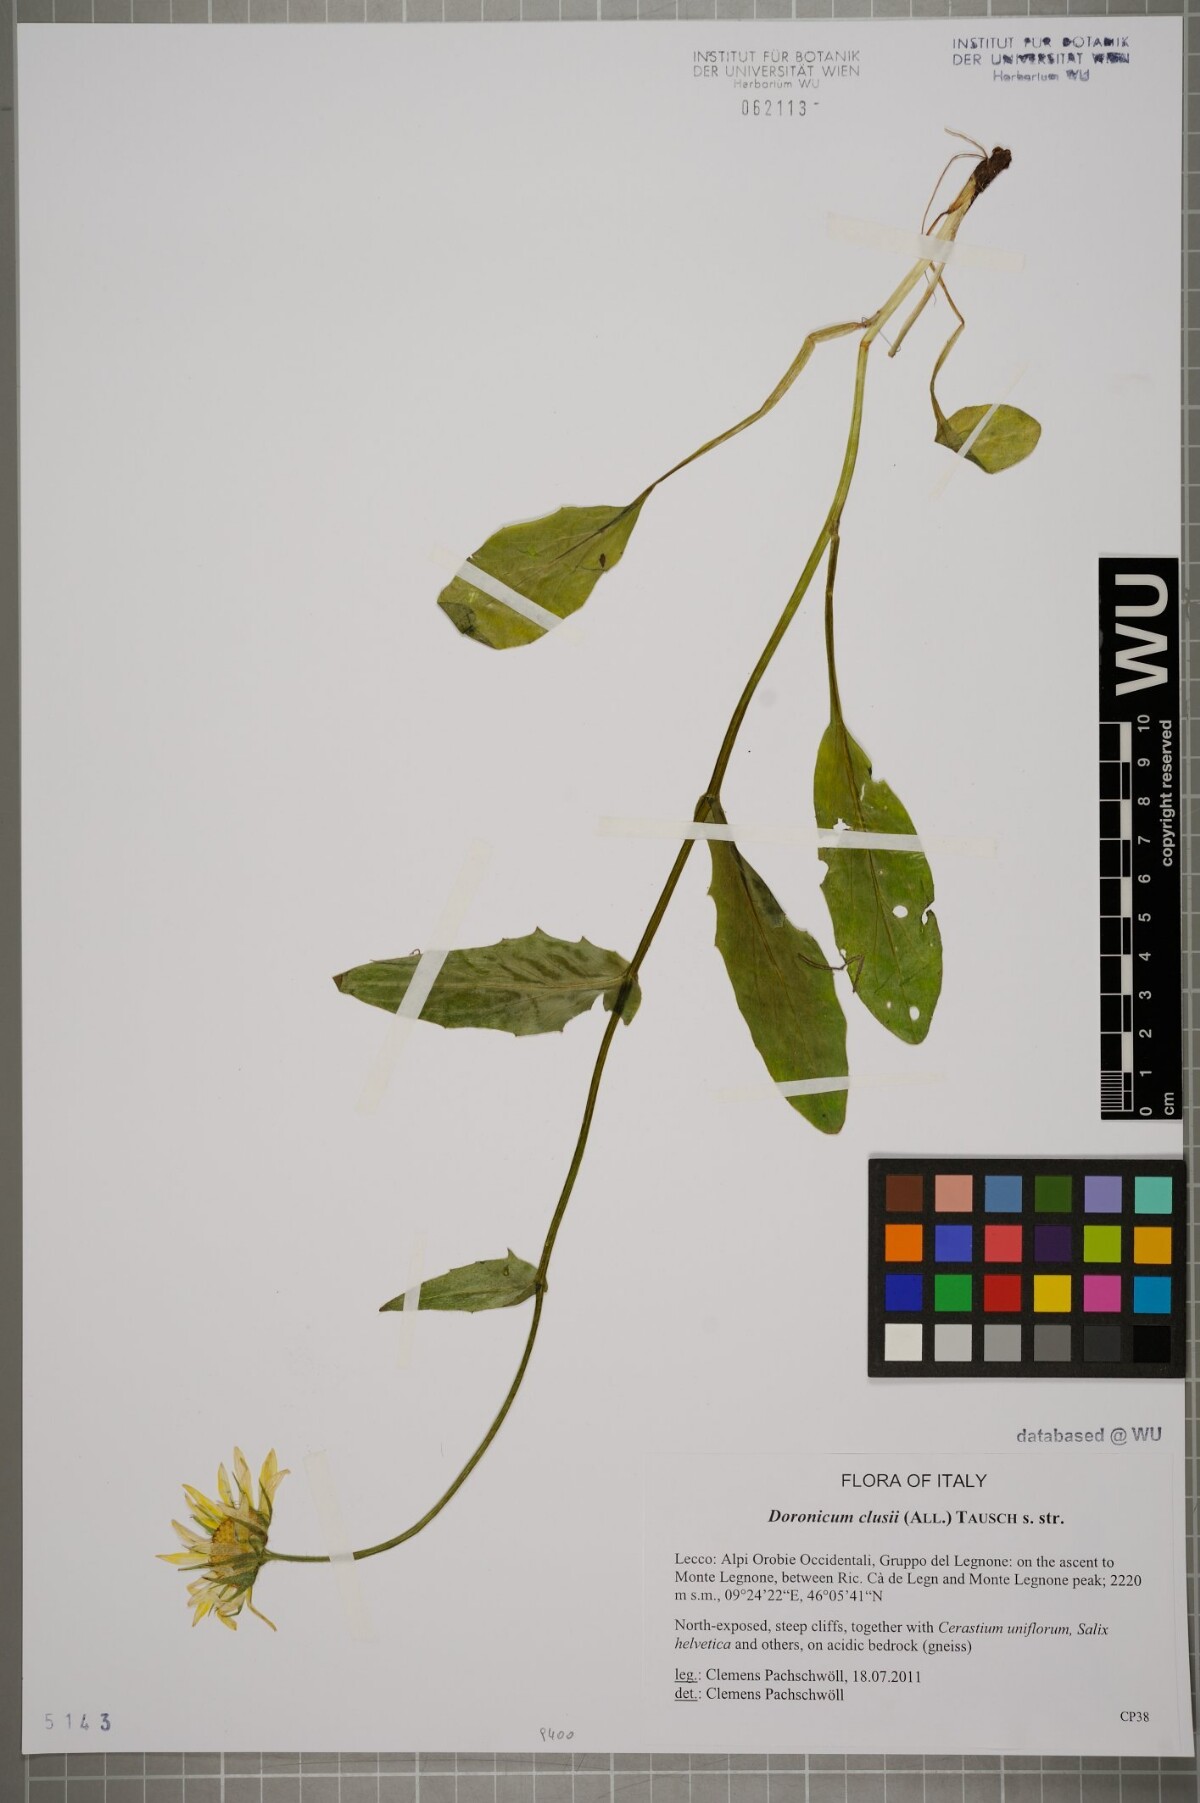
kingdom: Plantae
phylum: Tracheophyta
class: Magnoliopsida
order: Asterales
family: Asteraceae
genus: Doronicum
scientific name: Doronicum clusii
